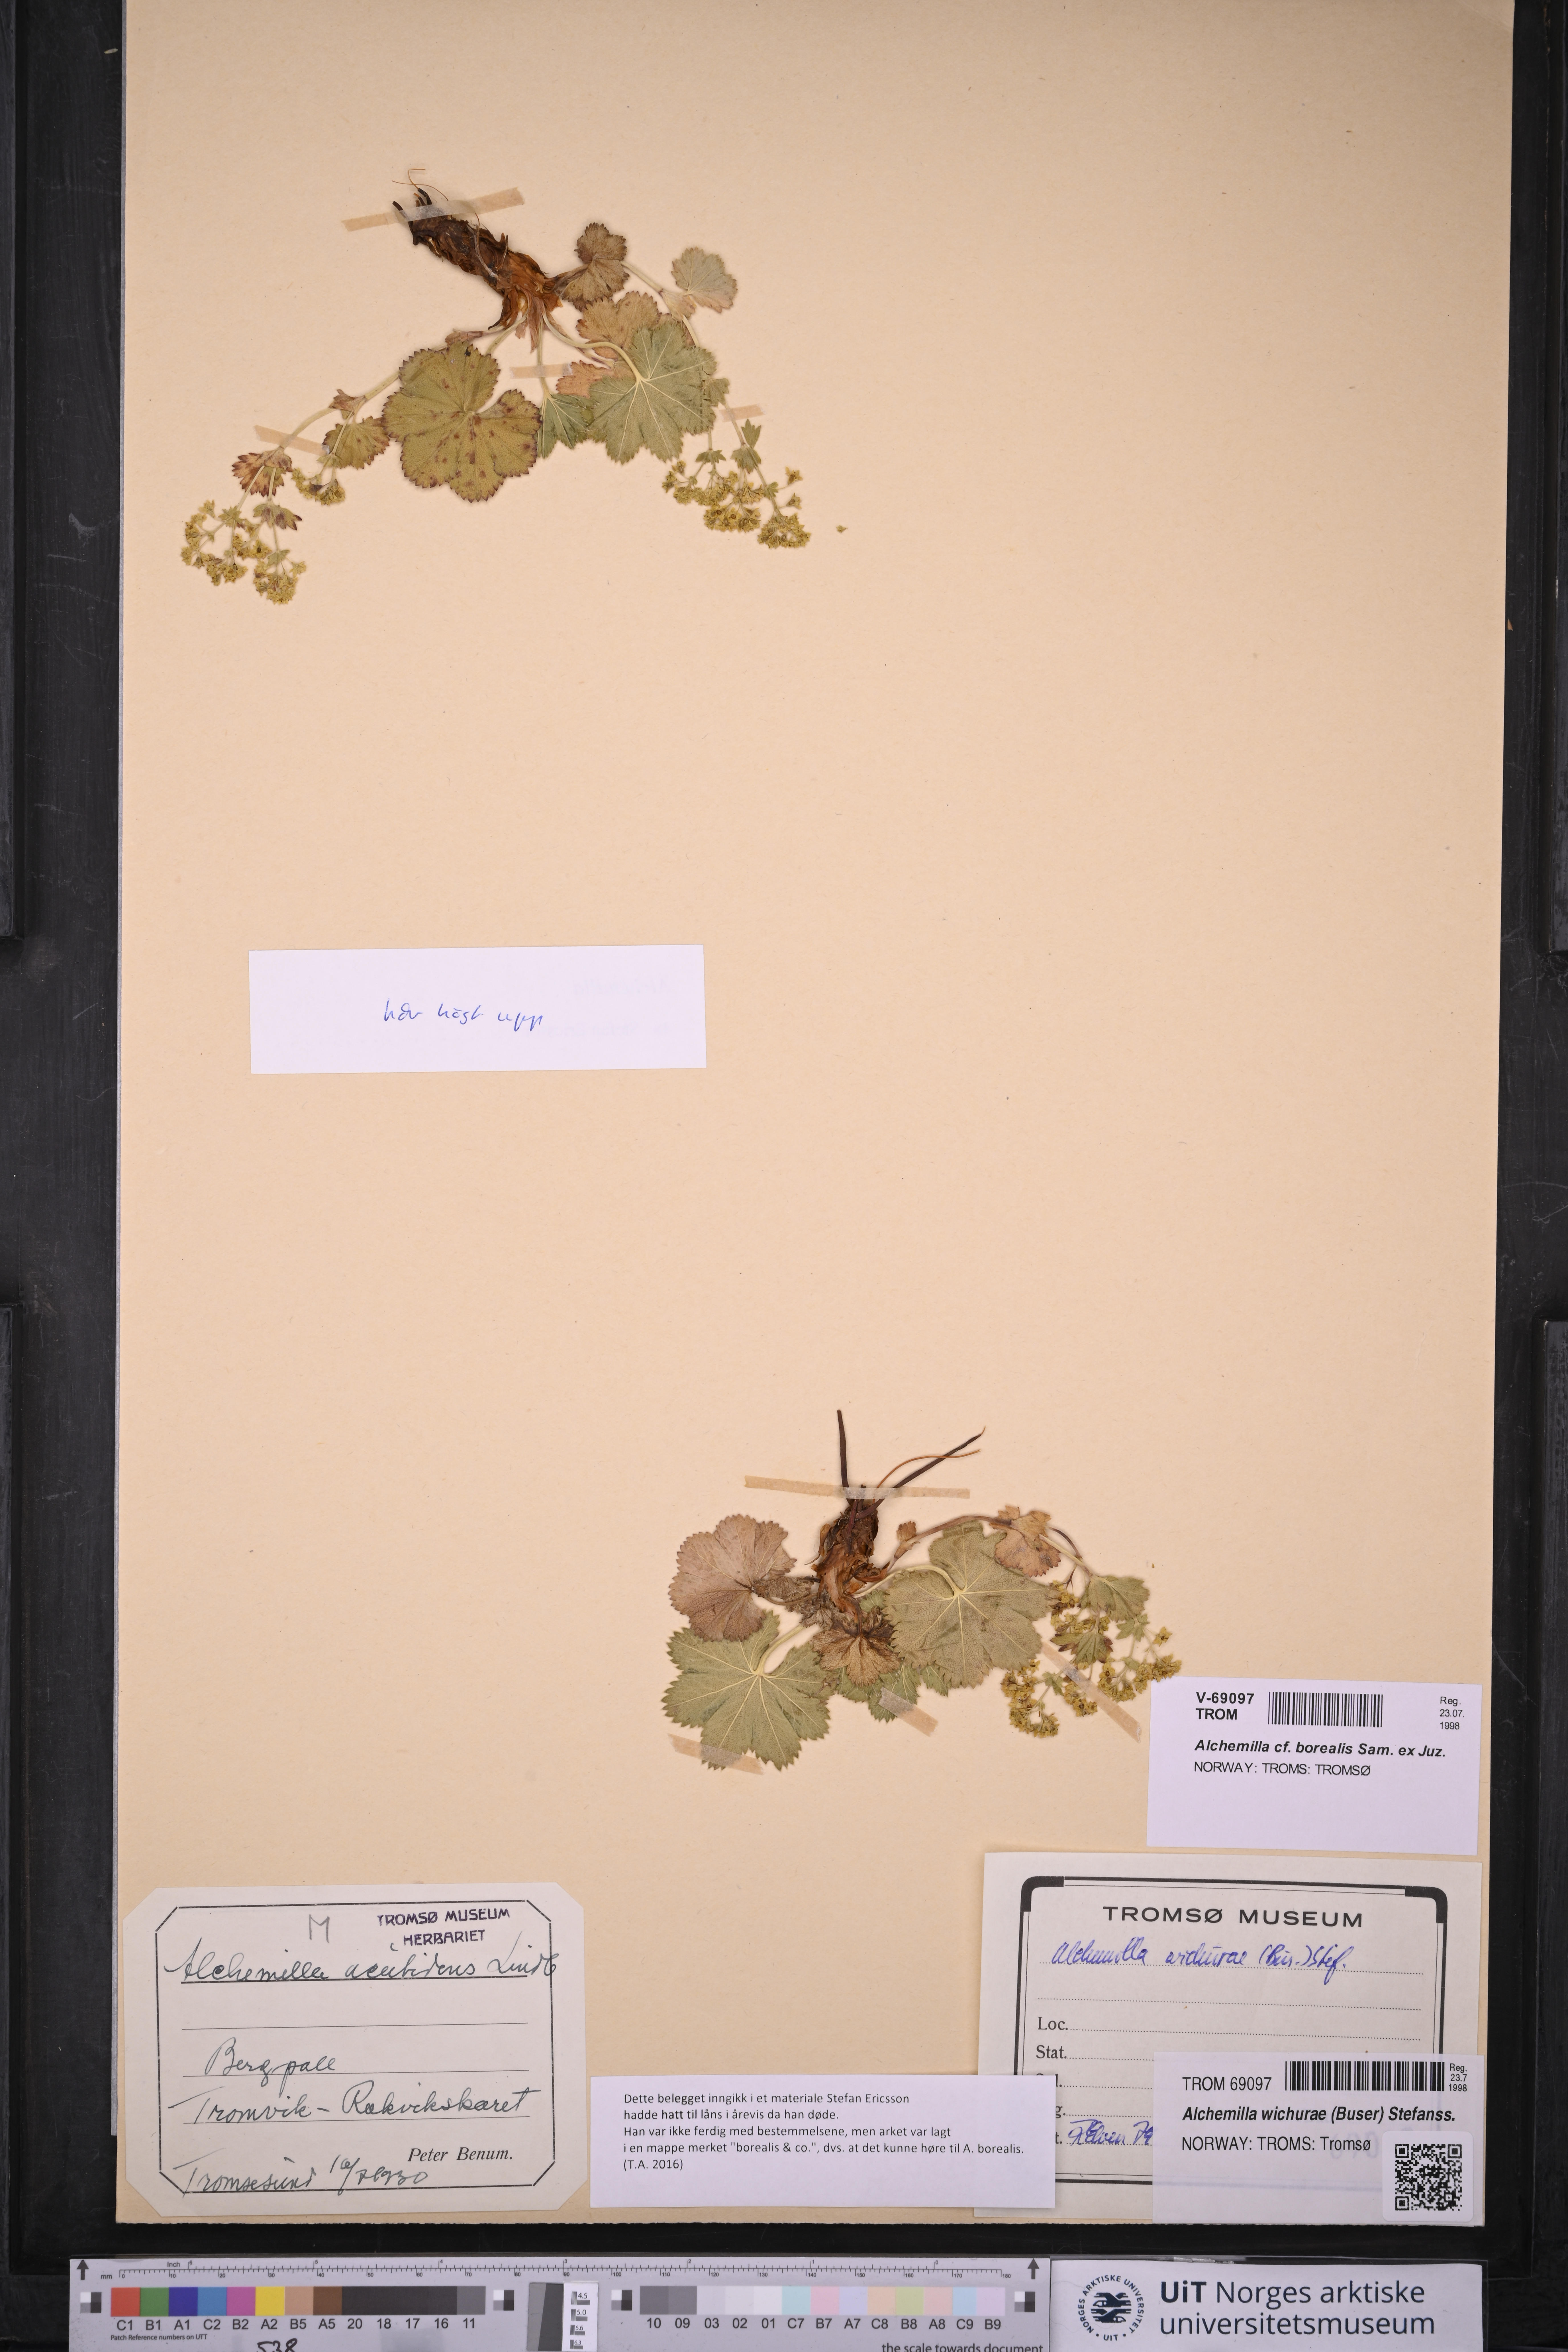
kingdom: Plantae
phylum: Tracheophyta
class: Magnoliopsida
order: Rosales
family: Rosaceae
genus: Alchemilla
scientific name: Alchemilla borealis
